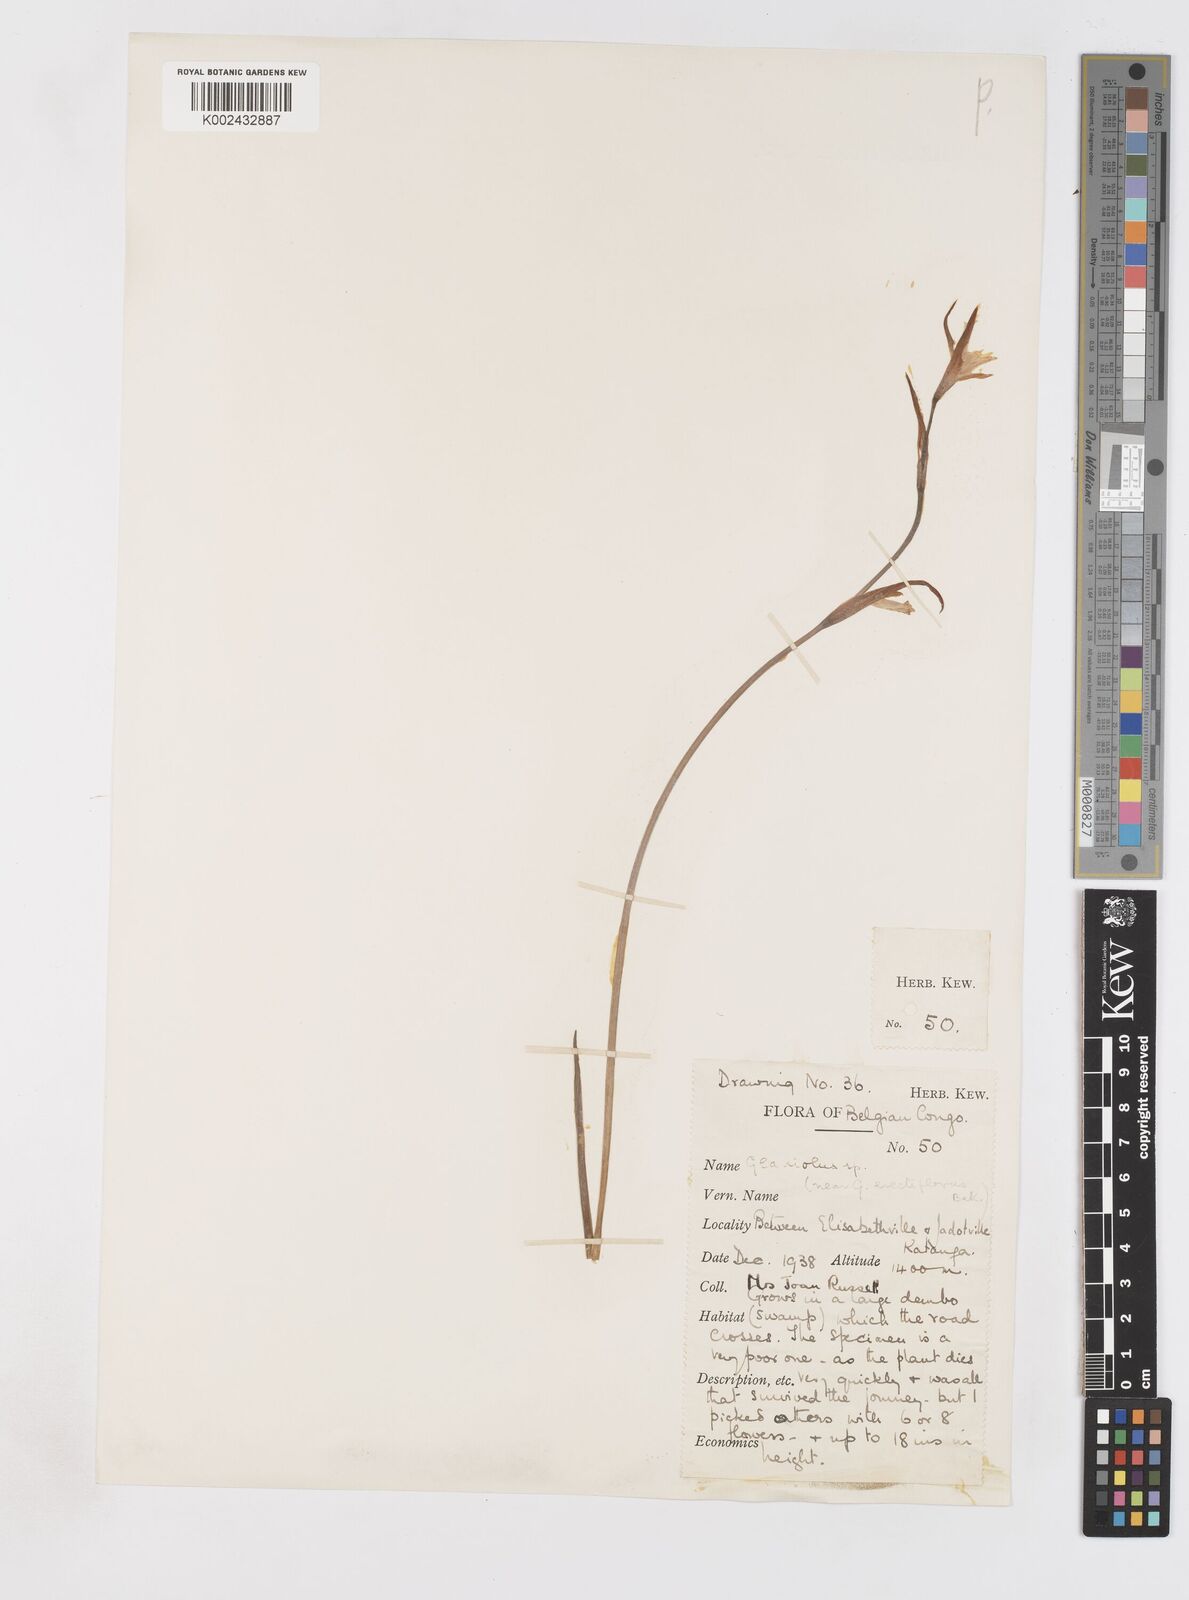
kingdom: Plantae
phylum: Tracheophyta
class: Liliopsida
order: Asparagales
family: Iridaceae
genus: Gladiolus
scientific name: Gladiolus erectiflorus
